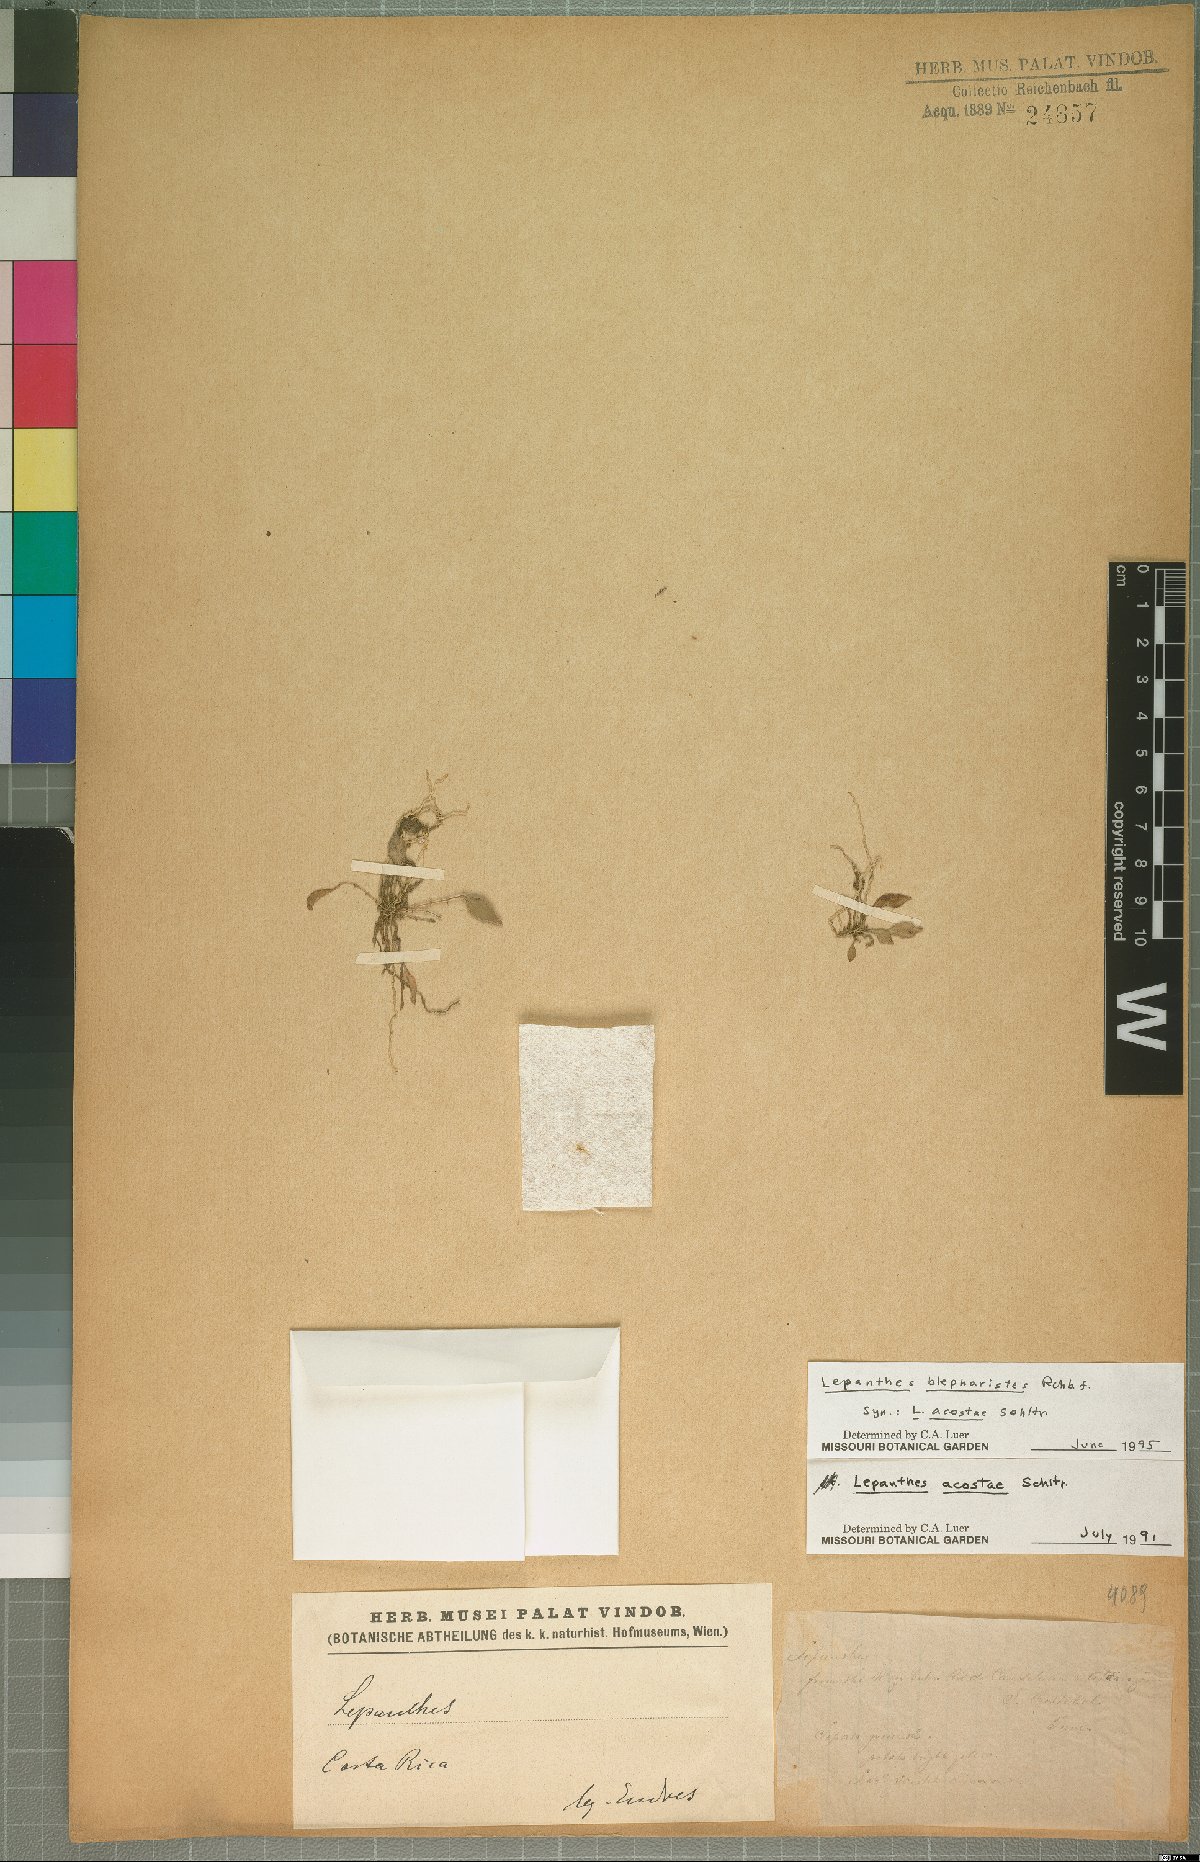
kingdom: Plantae
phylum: Tracheophyta
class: Liliopsida
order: Asparagales
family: Orchidaceae
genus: Lepanthes
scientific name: Lepanthes blepharistes
